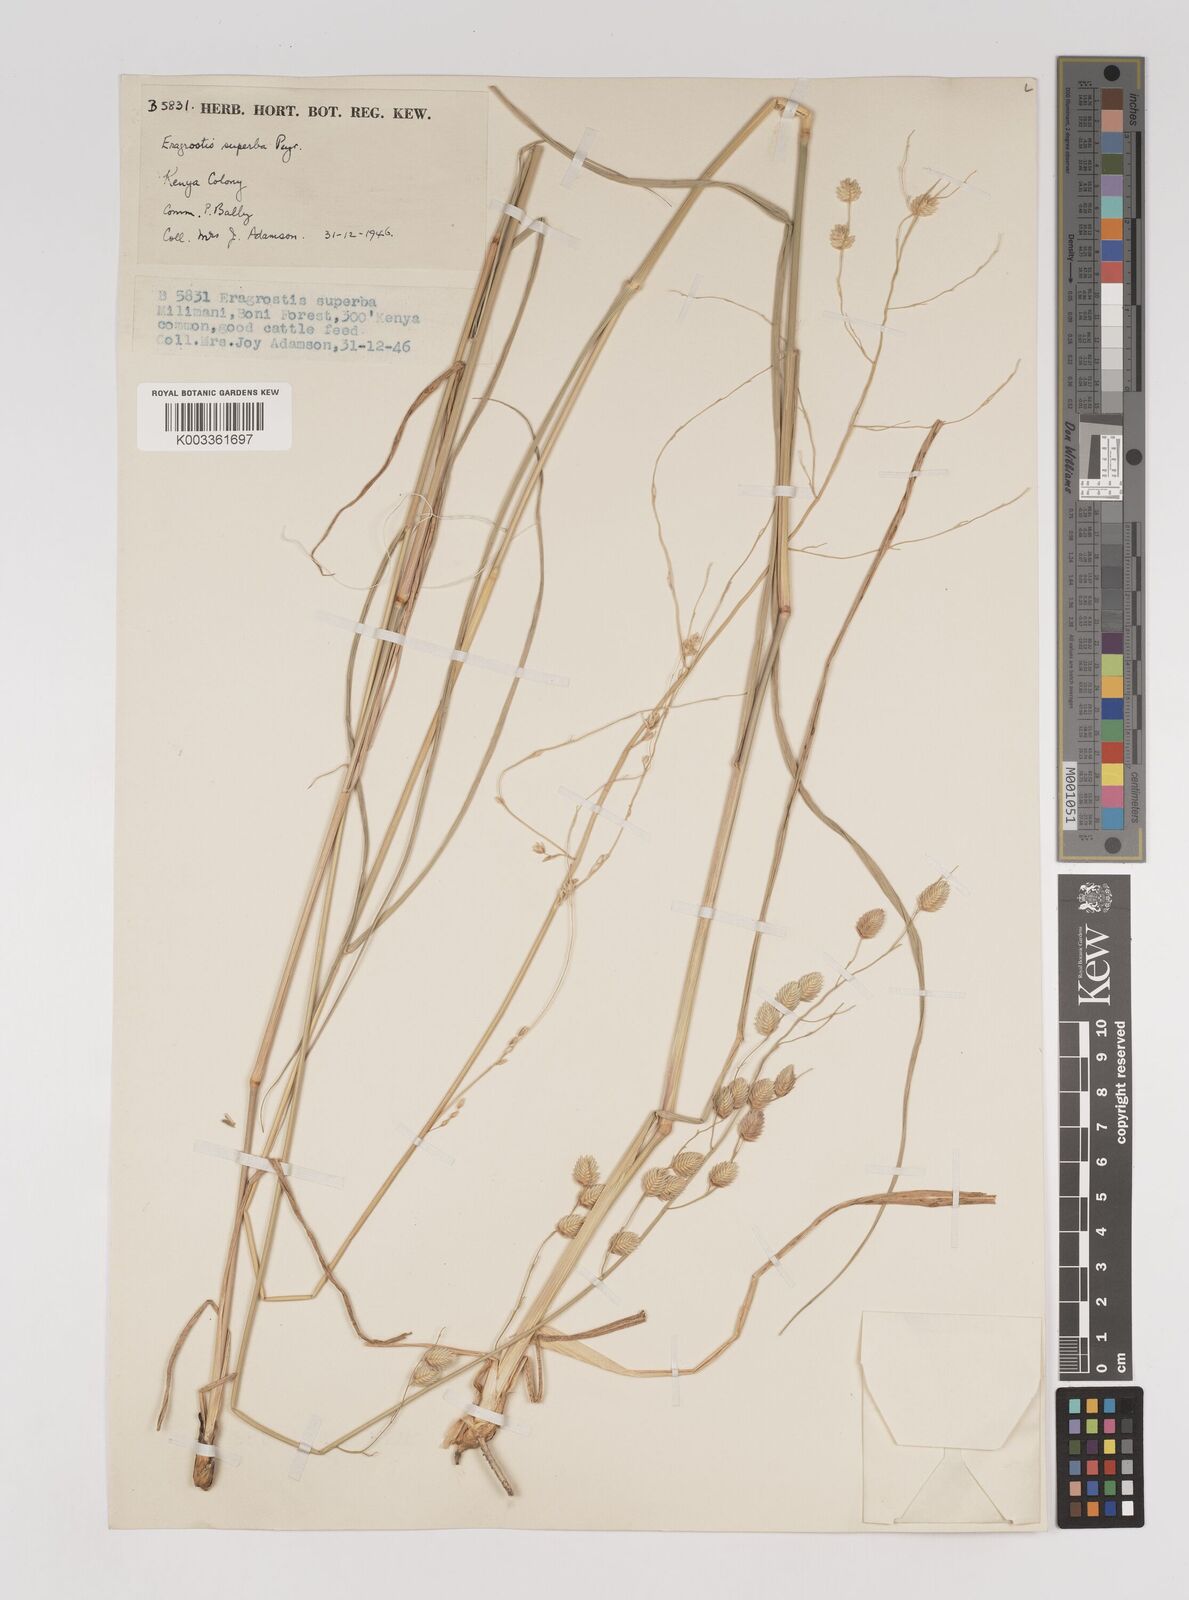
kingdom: Plantae
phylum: Tracheophyta
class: Liliopsida
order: Poales
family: Poaceae
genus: Eragrostis
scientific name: Eragrostis superba
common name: Wilman lovegrass
